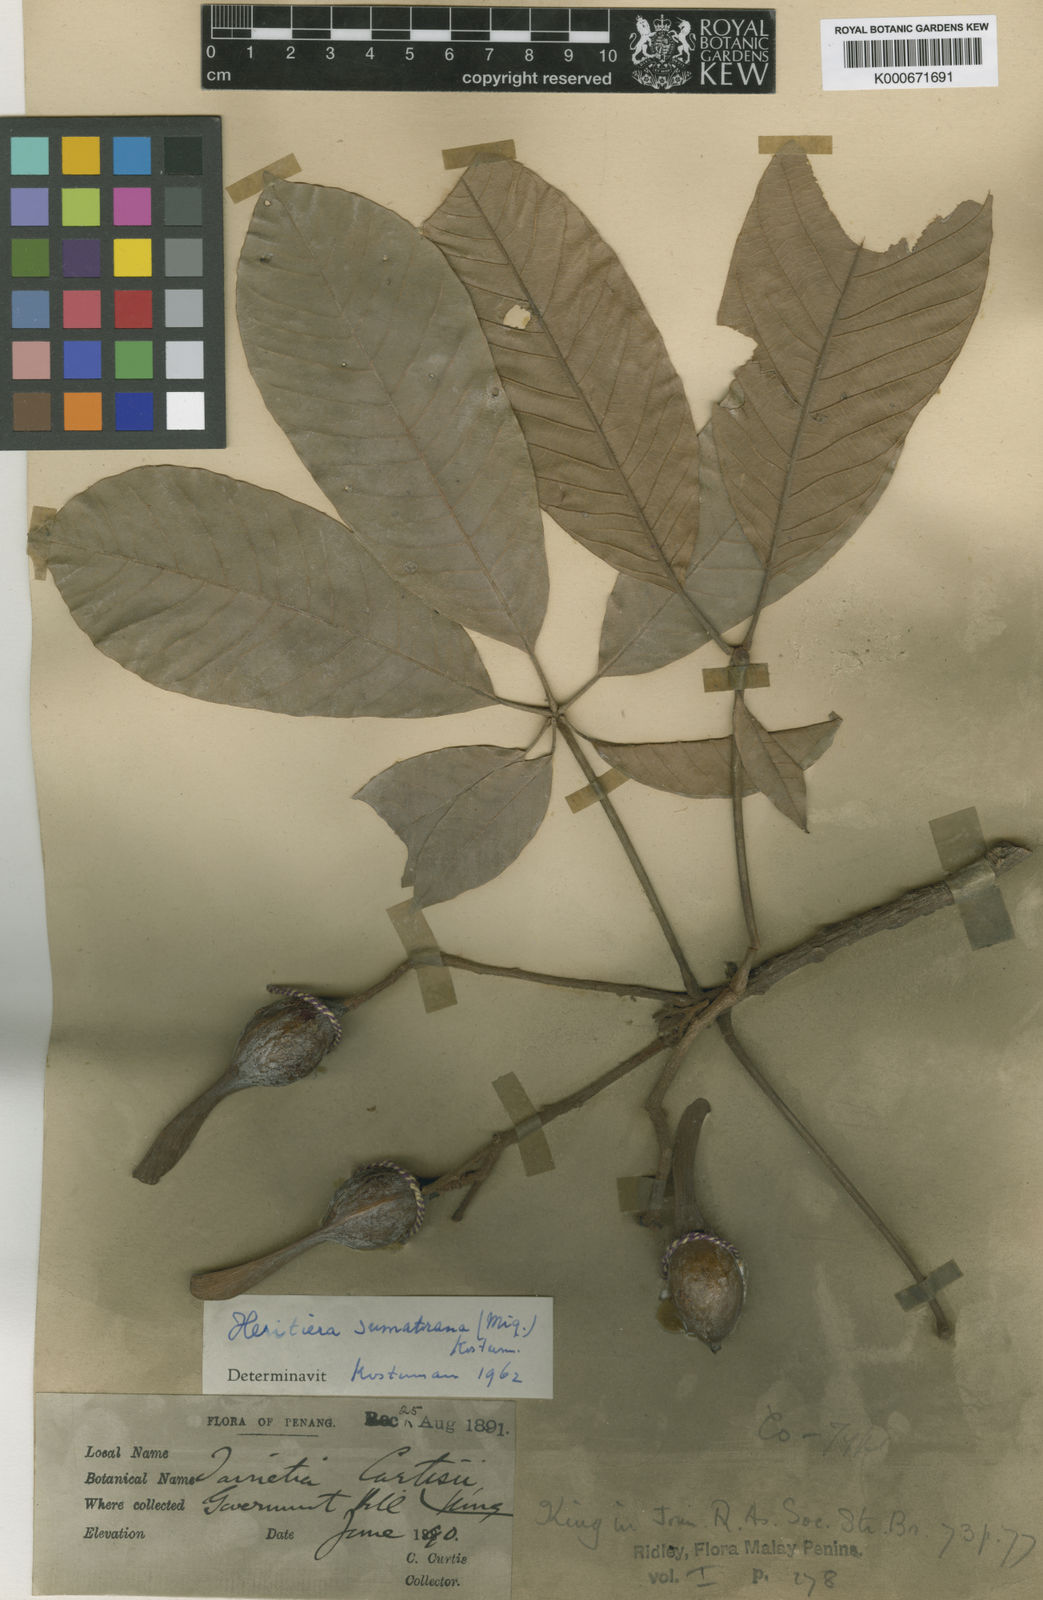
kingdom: Plantae
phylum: Tracheophyta
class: Magnoliopsida
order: Malvales
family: Malvaceae
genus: Heritiera
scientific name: Heritiera sumatrana
